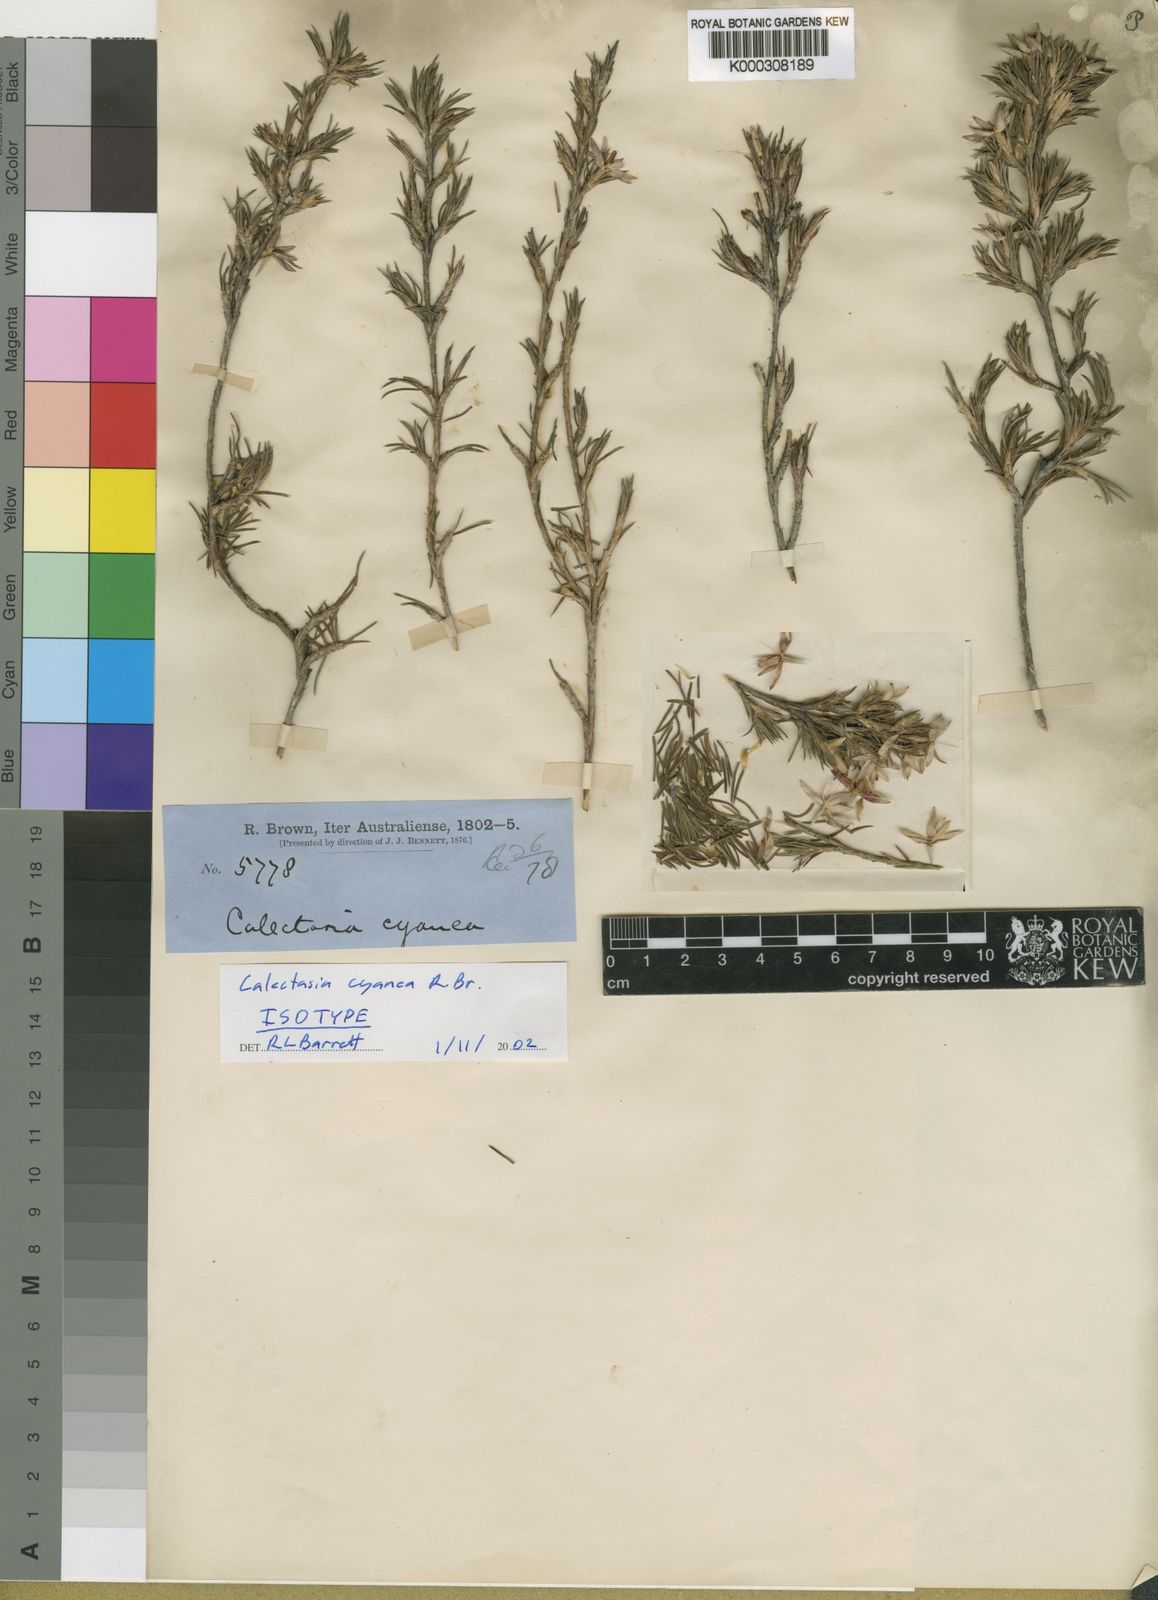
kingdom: Plantae
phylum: Tracheophyta
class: Liliopsida
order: Arecales
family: Dasypogonaceae
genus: Calectasia
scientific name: Calectasia cyanea
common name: Blue tinsel-lily
